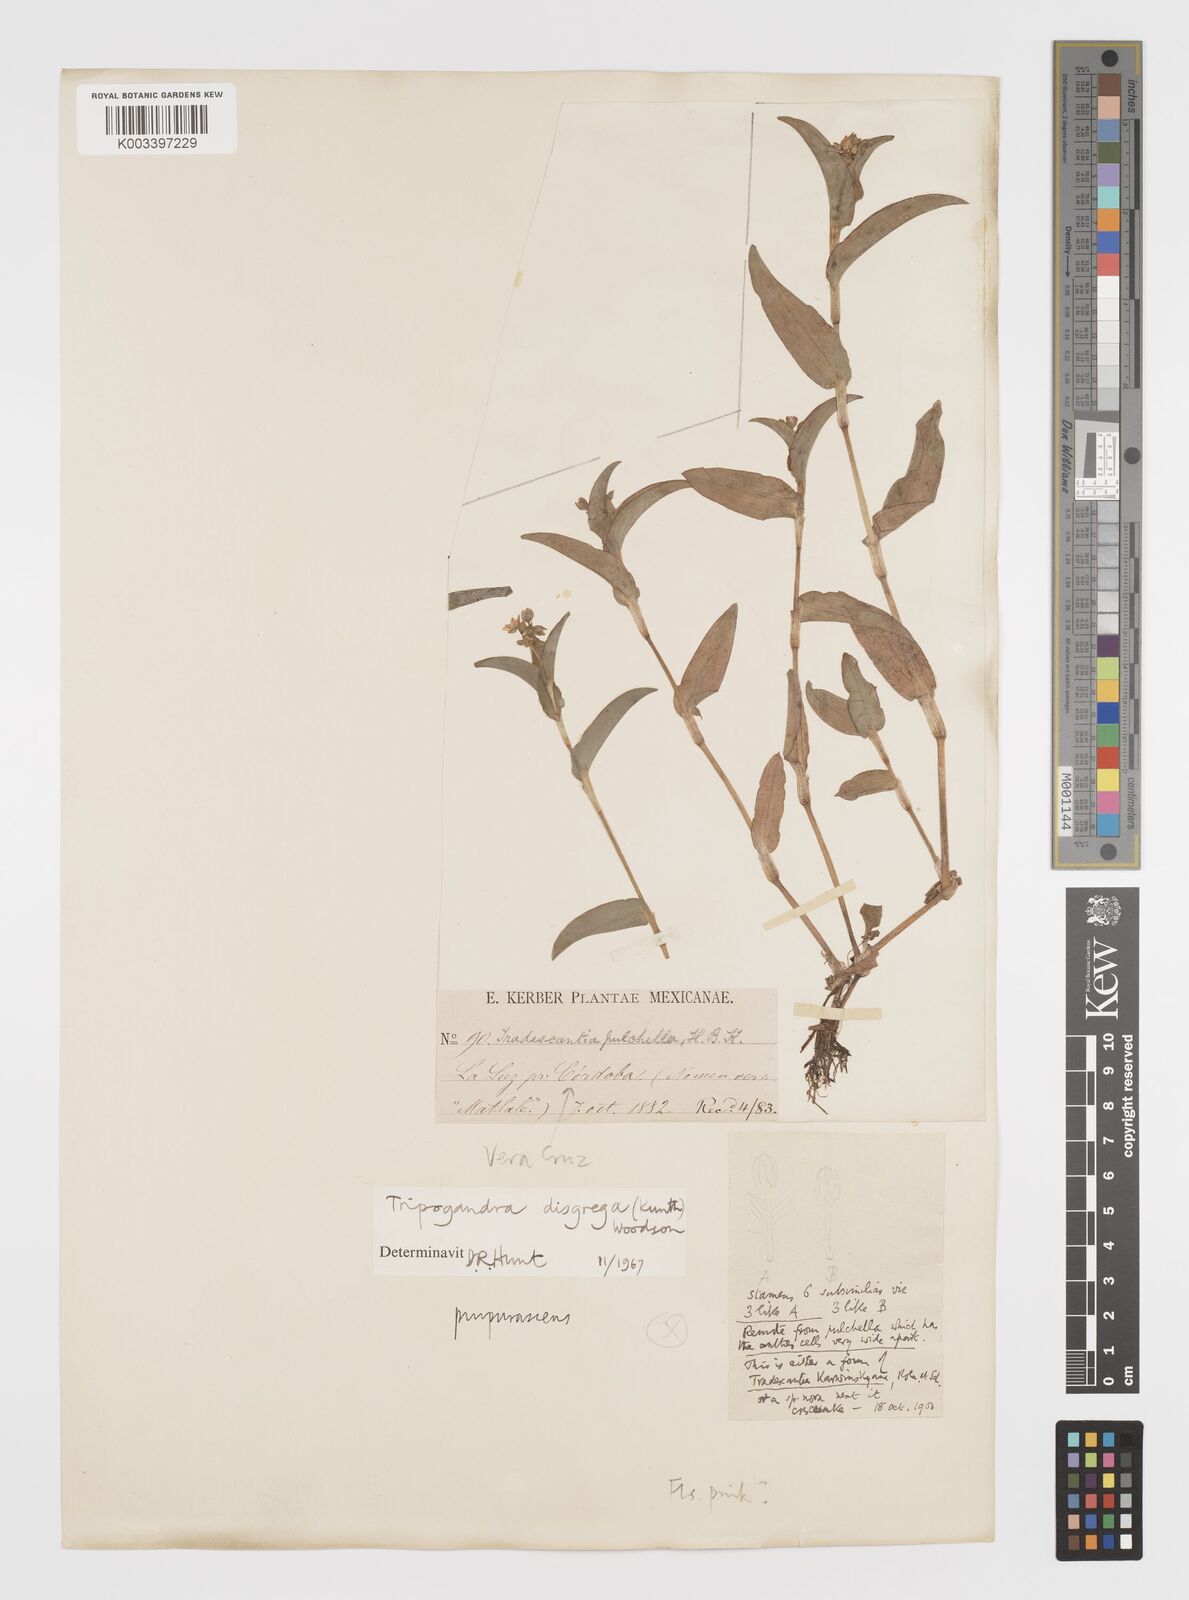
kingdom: Plantae
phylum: Tracheophyta
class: Liliopsida
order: Commelinales
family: Commelinaceae
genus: Callisia
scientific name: Callisia disgrega
